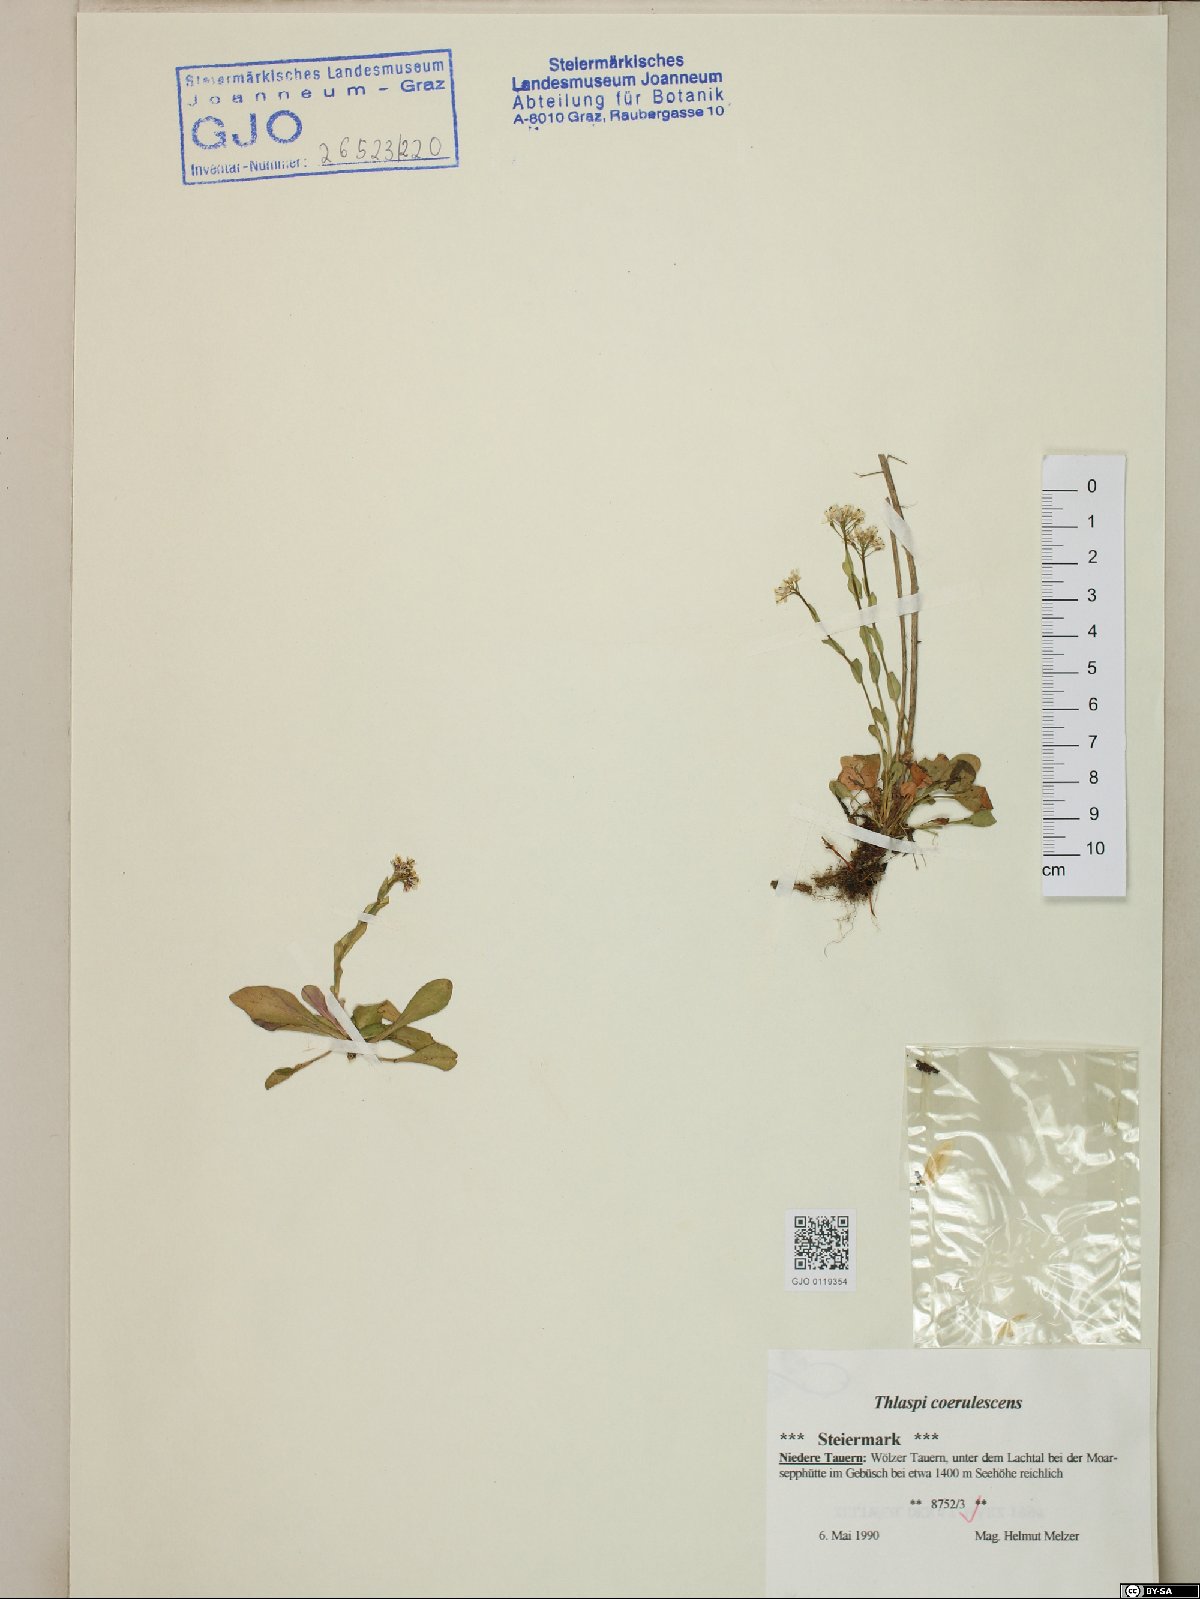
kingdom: Plantae
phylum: Tracheophyta
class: Magnoliopsida
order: Brassicales
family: Brassicaceae
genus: Noccaea
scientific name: Noccaea caerulescens
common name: Alpine pennycress
